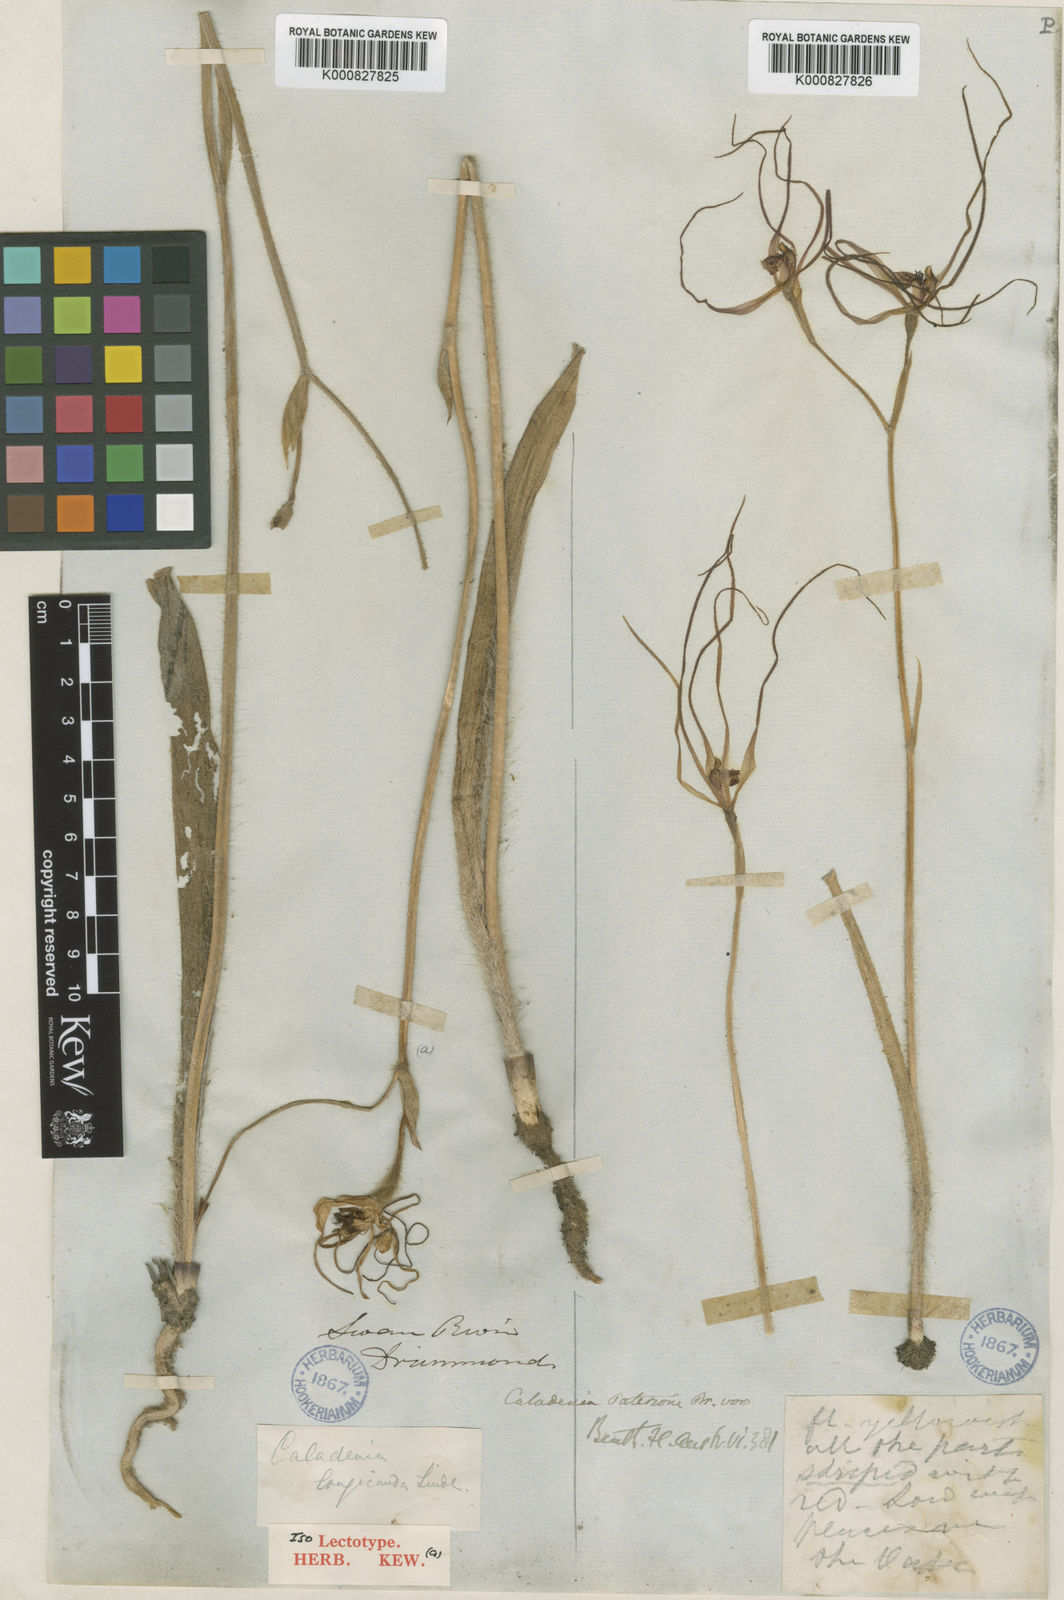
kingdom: Plantae
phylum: Tracheophyta
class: Liliopsida
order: Asparagales
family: Orchidaceae
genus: Caladenia
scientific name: Caladenia longicauda
